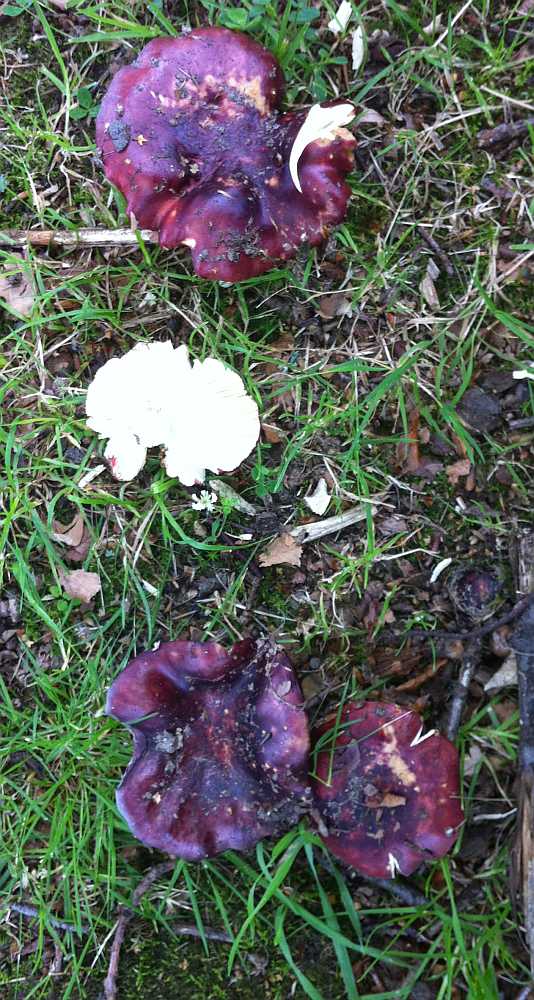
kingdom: Fungi
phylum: Basidiomycota
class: Agaricomycetes
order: Russulales
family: Russulaceae
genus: Russula
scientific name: Russula atropurpurea
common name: purpurbroget skørhat
